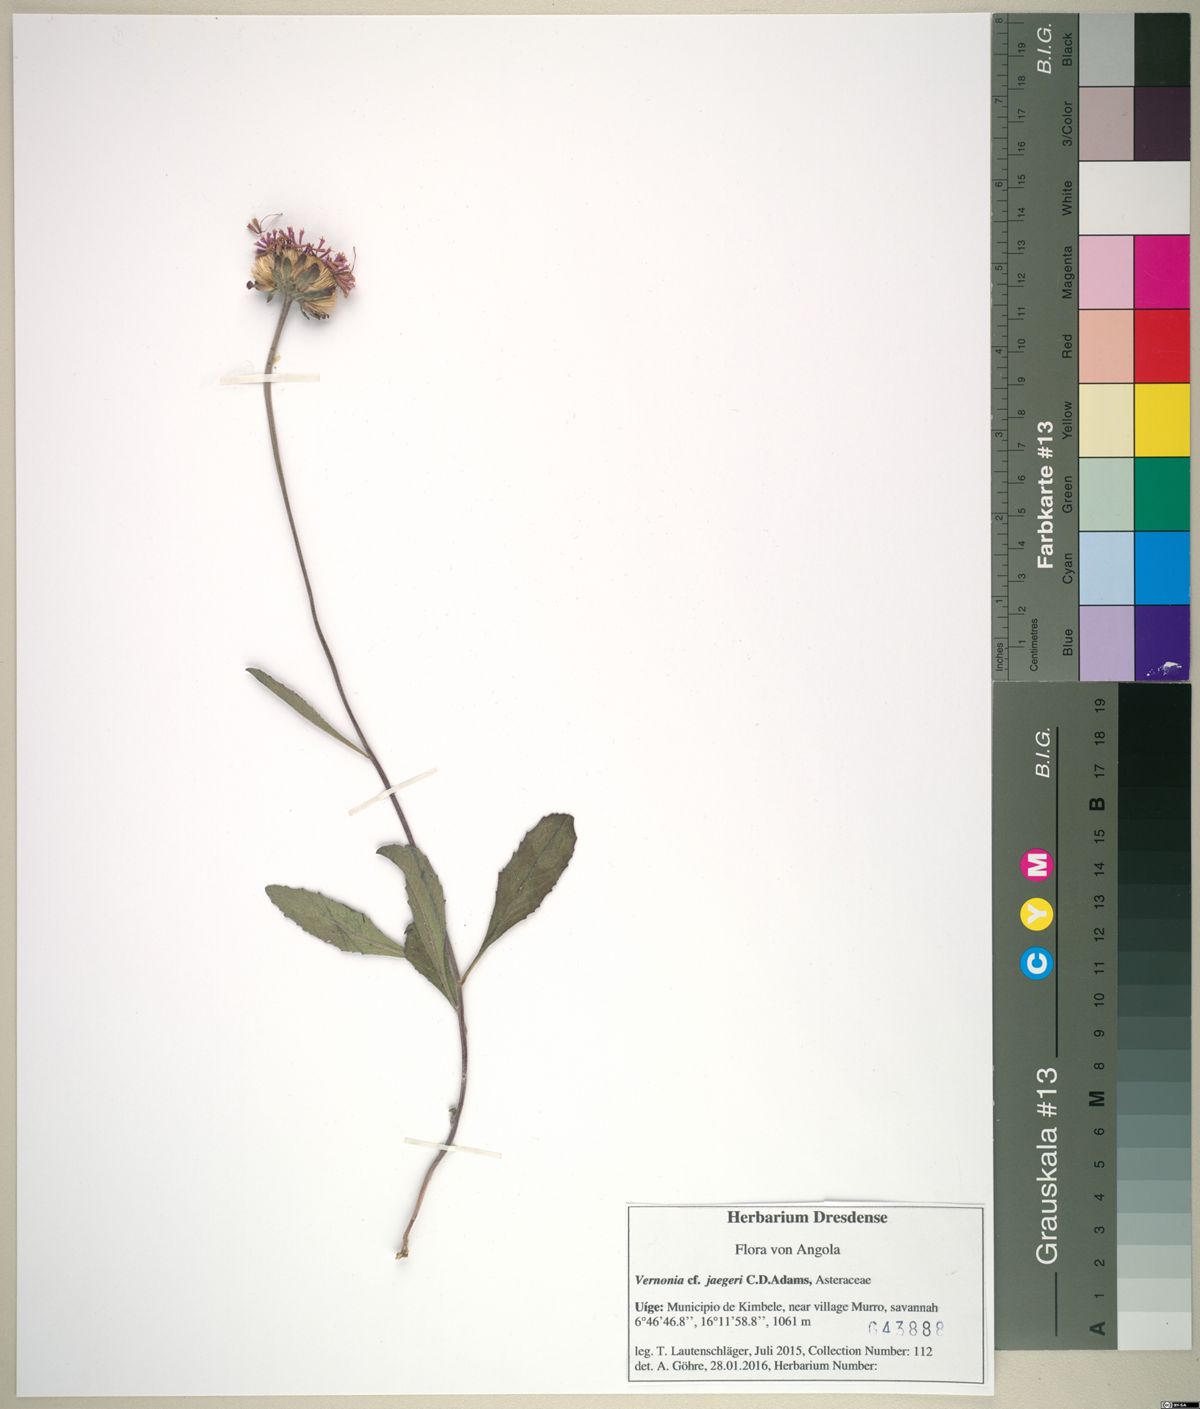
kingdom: Plantae
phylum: Tracheophyta
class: Magnoliopsida
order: Asterales
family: Asteraceae
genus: Linzia
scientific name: Linzia gerberiformis
